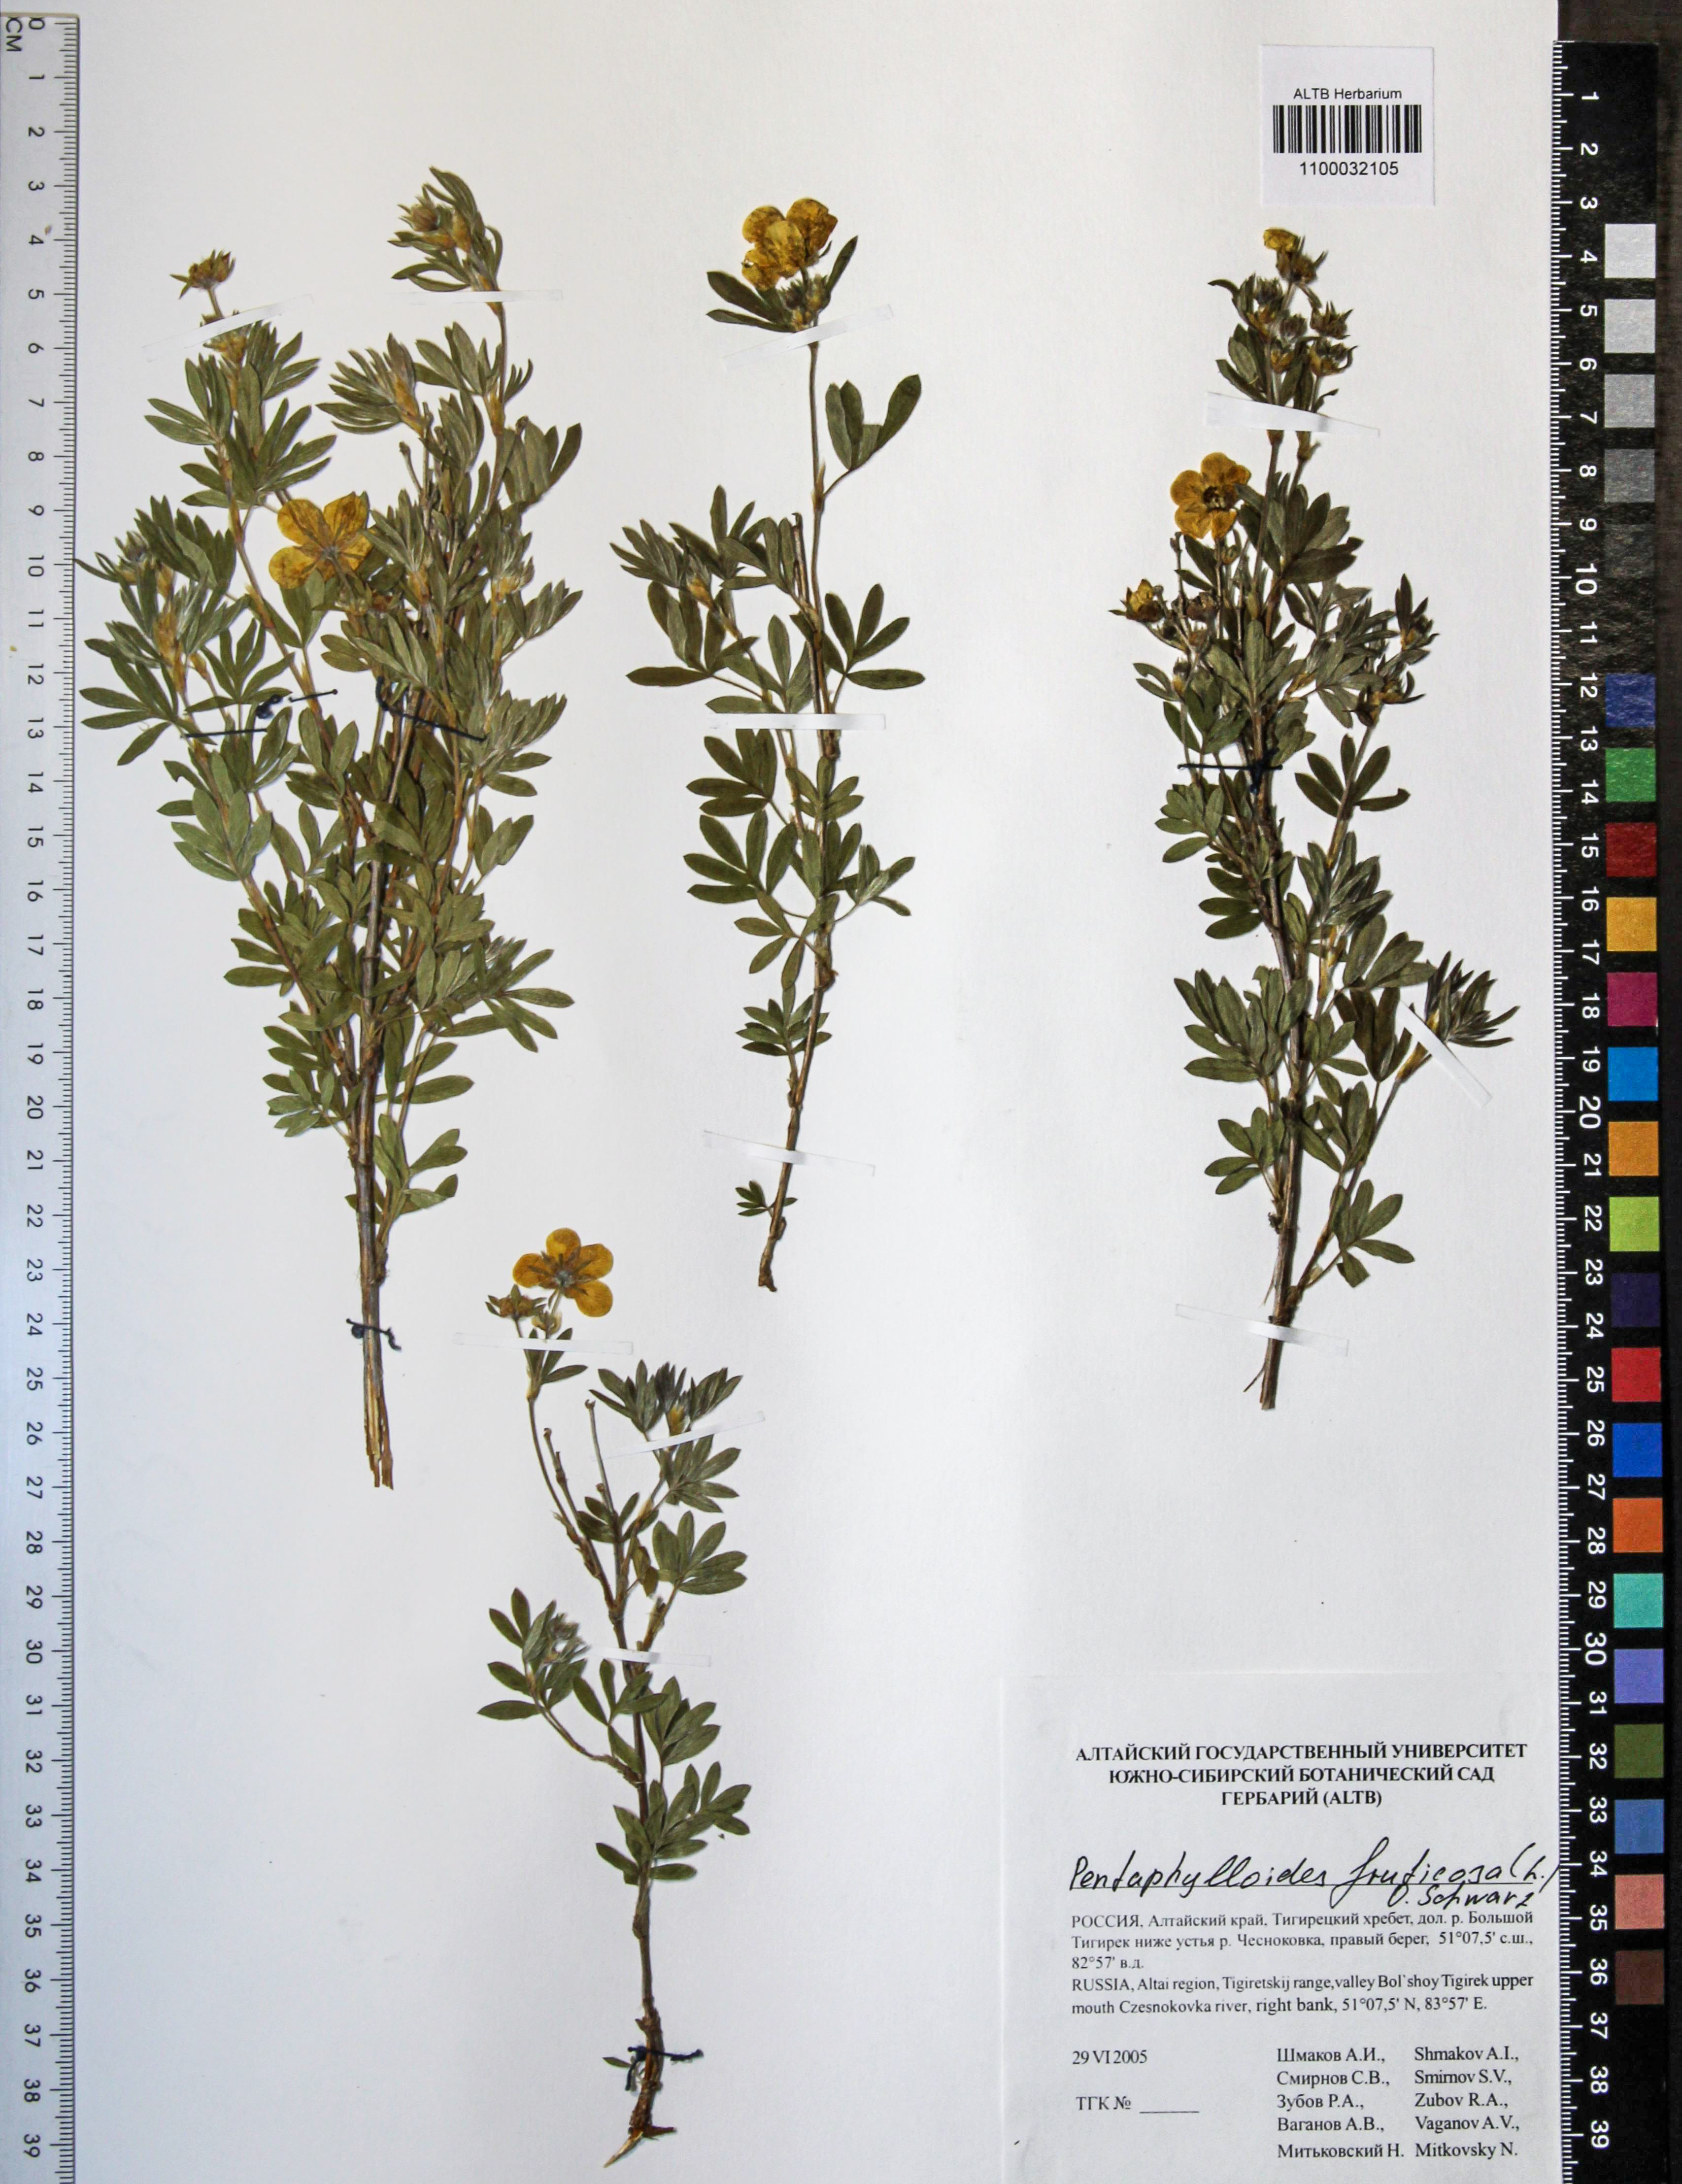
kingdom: Plantae
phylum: Tracheophyta
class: Magnoliopsida
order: Rosales
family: Rosaceae
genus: Dasiphora
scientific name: Dasiphora fruticosa
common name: Shrubby cinquefoil
